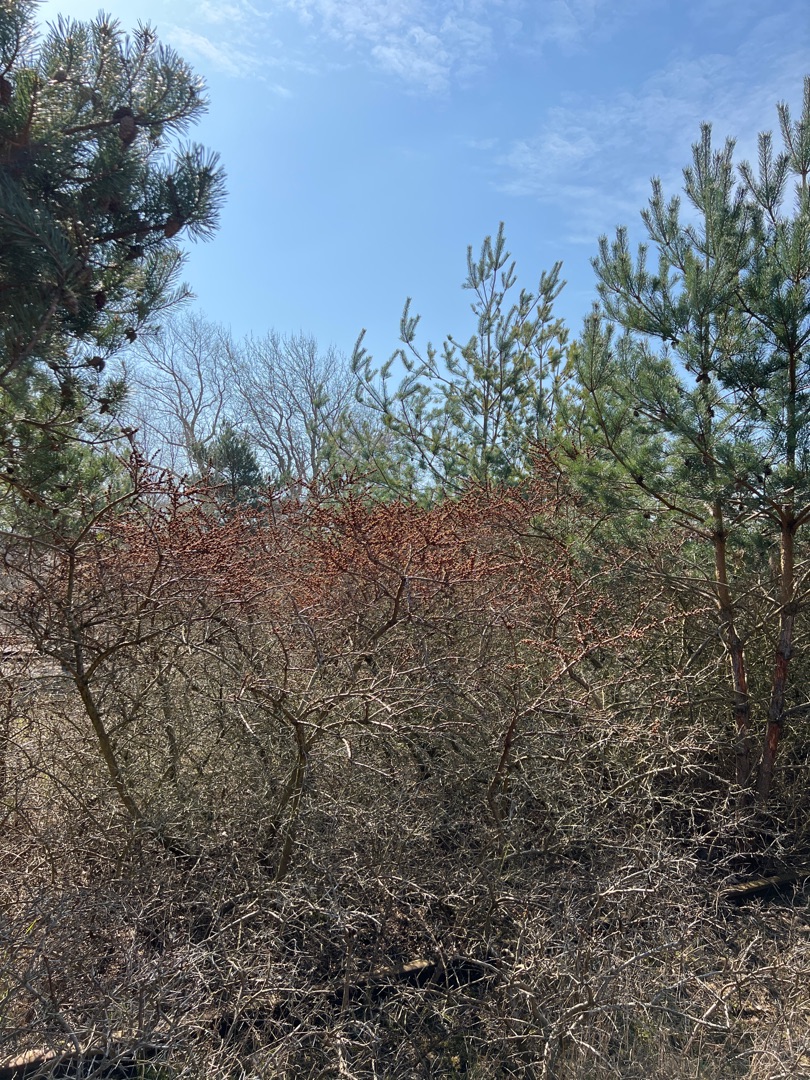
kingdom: Plantae
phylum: Tracheophyta
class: Magnoliopsida
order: Rosales
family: Elaeagnaceae
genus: Hippophae
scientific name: Hippophae rhamnoides
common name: Havtorn
